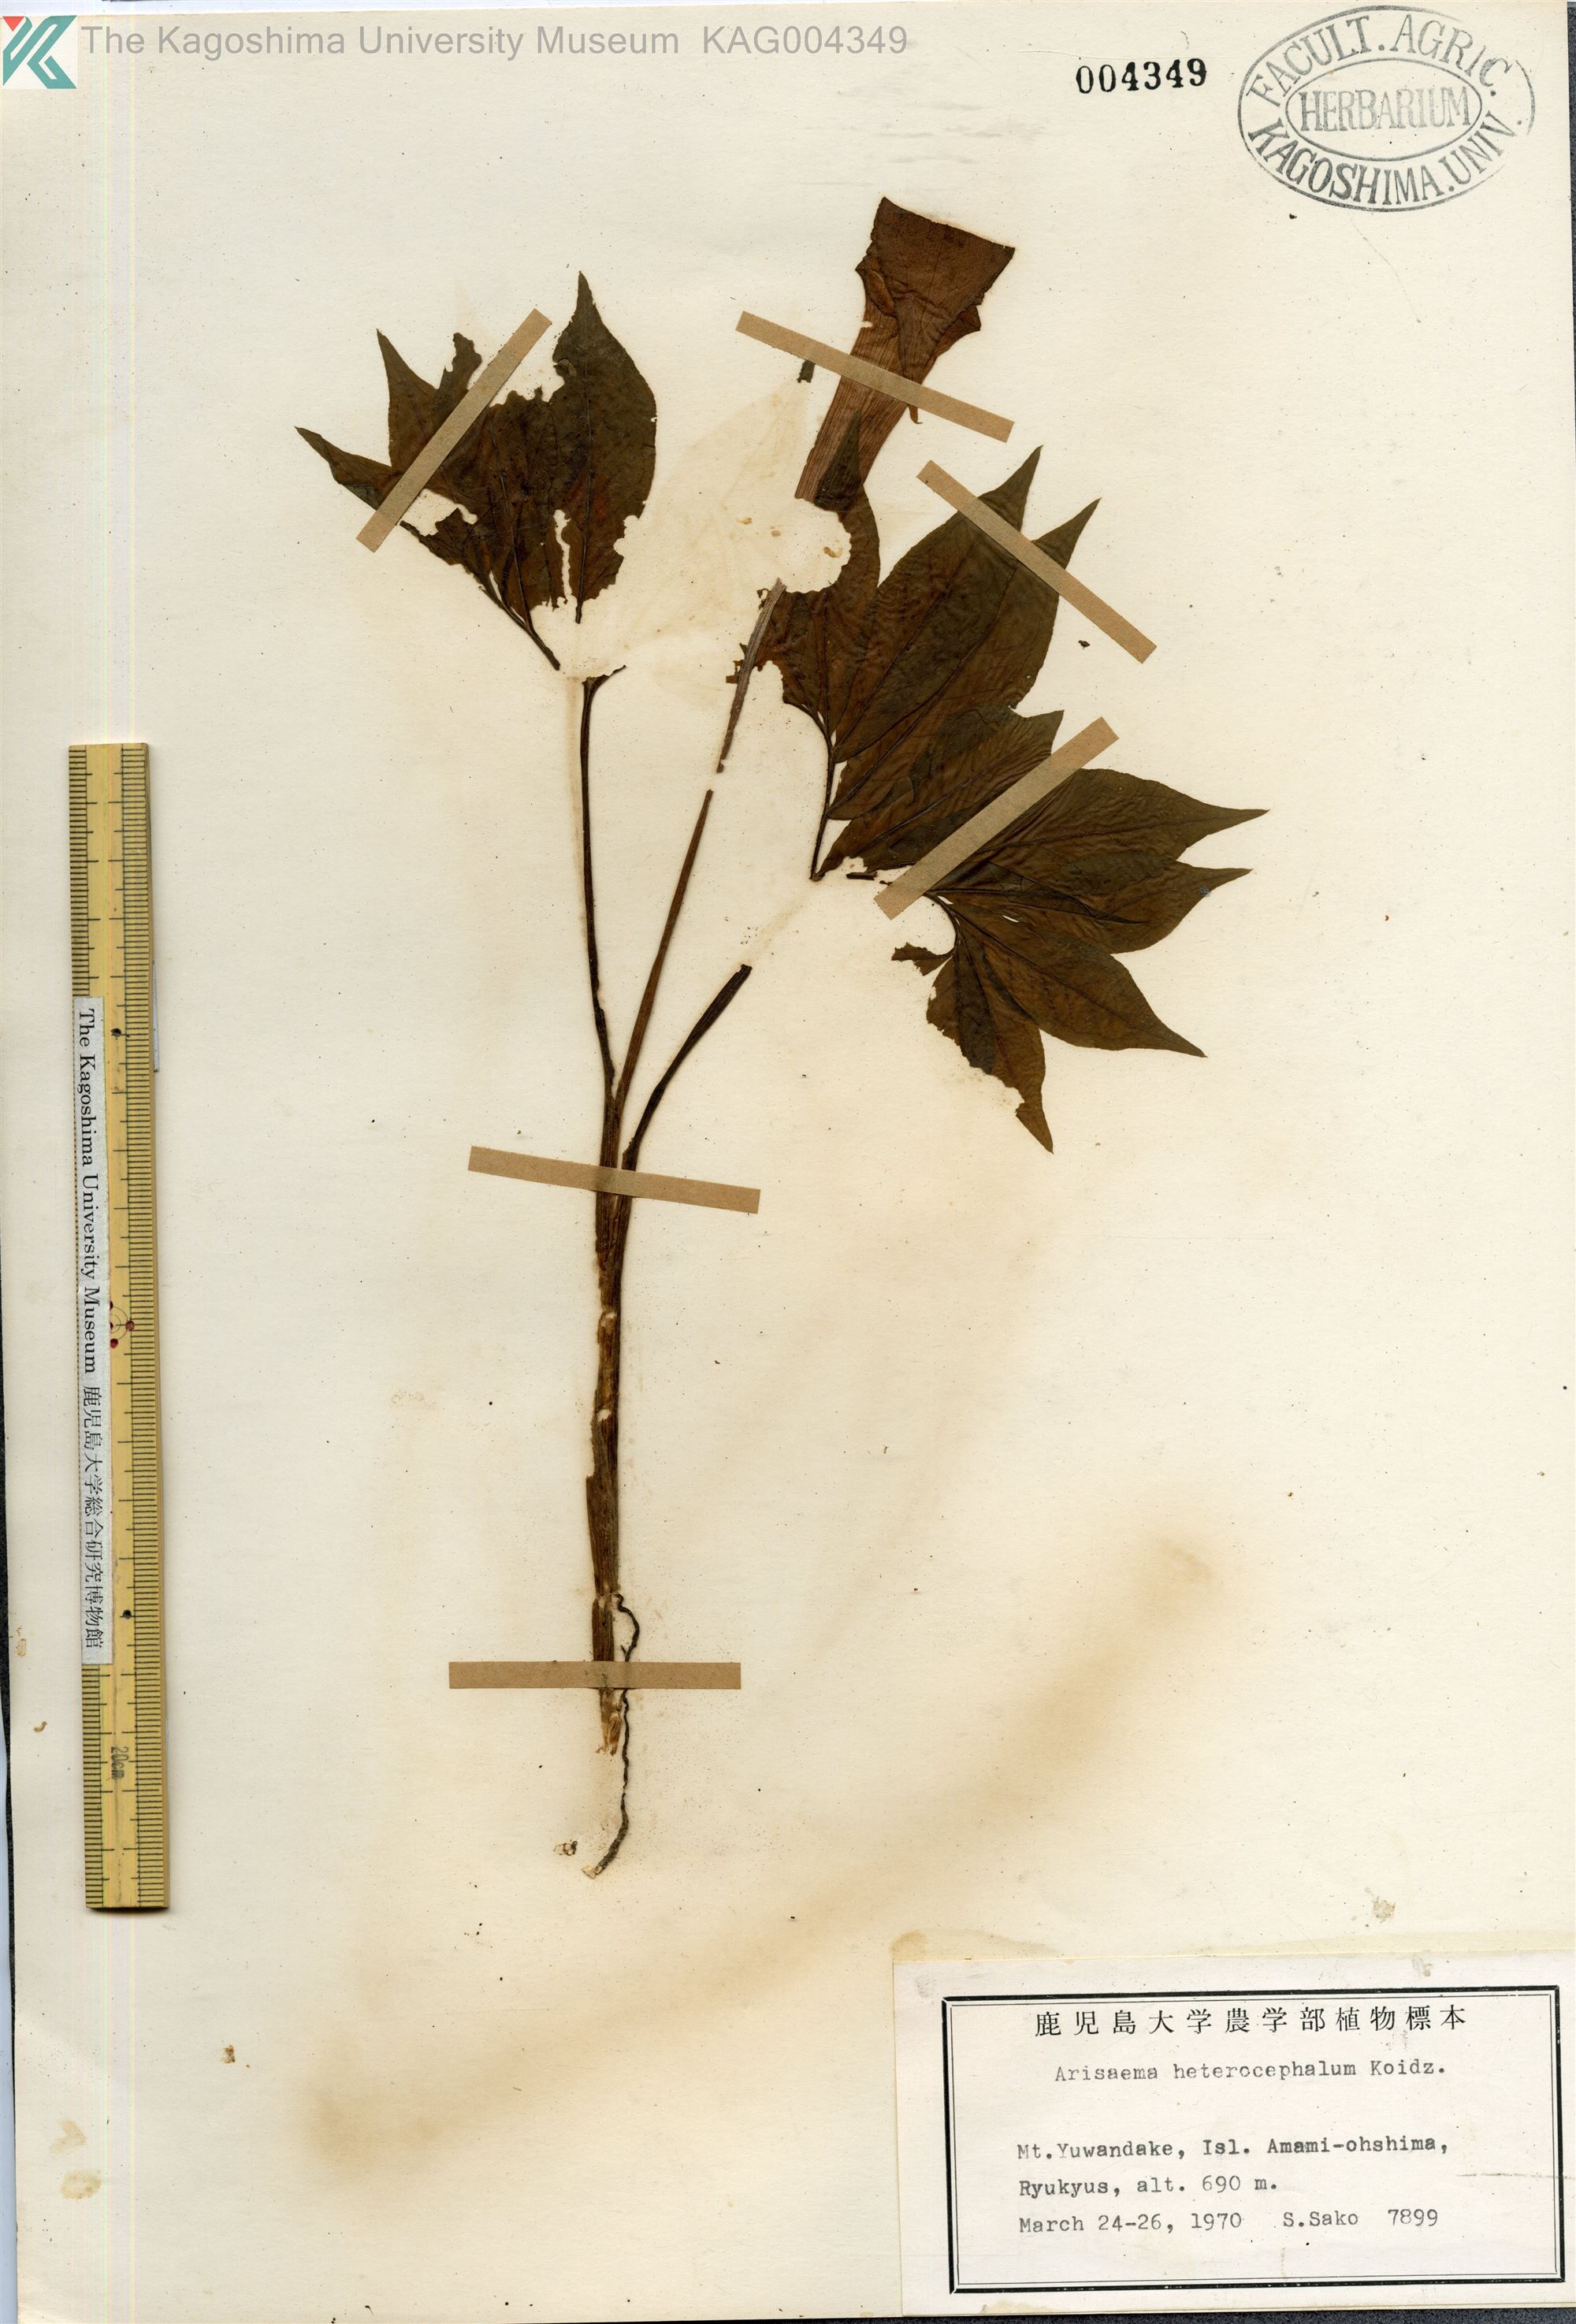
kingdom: Plantae
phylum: Tracheophyta
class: Liliopsida
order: Alismatales
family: Araceae
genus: Arisaema
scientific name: Arisaema heterocephalum
